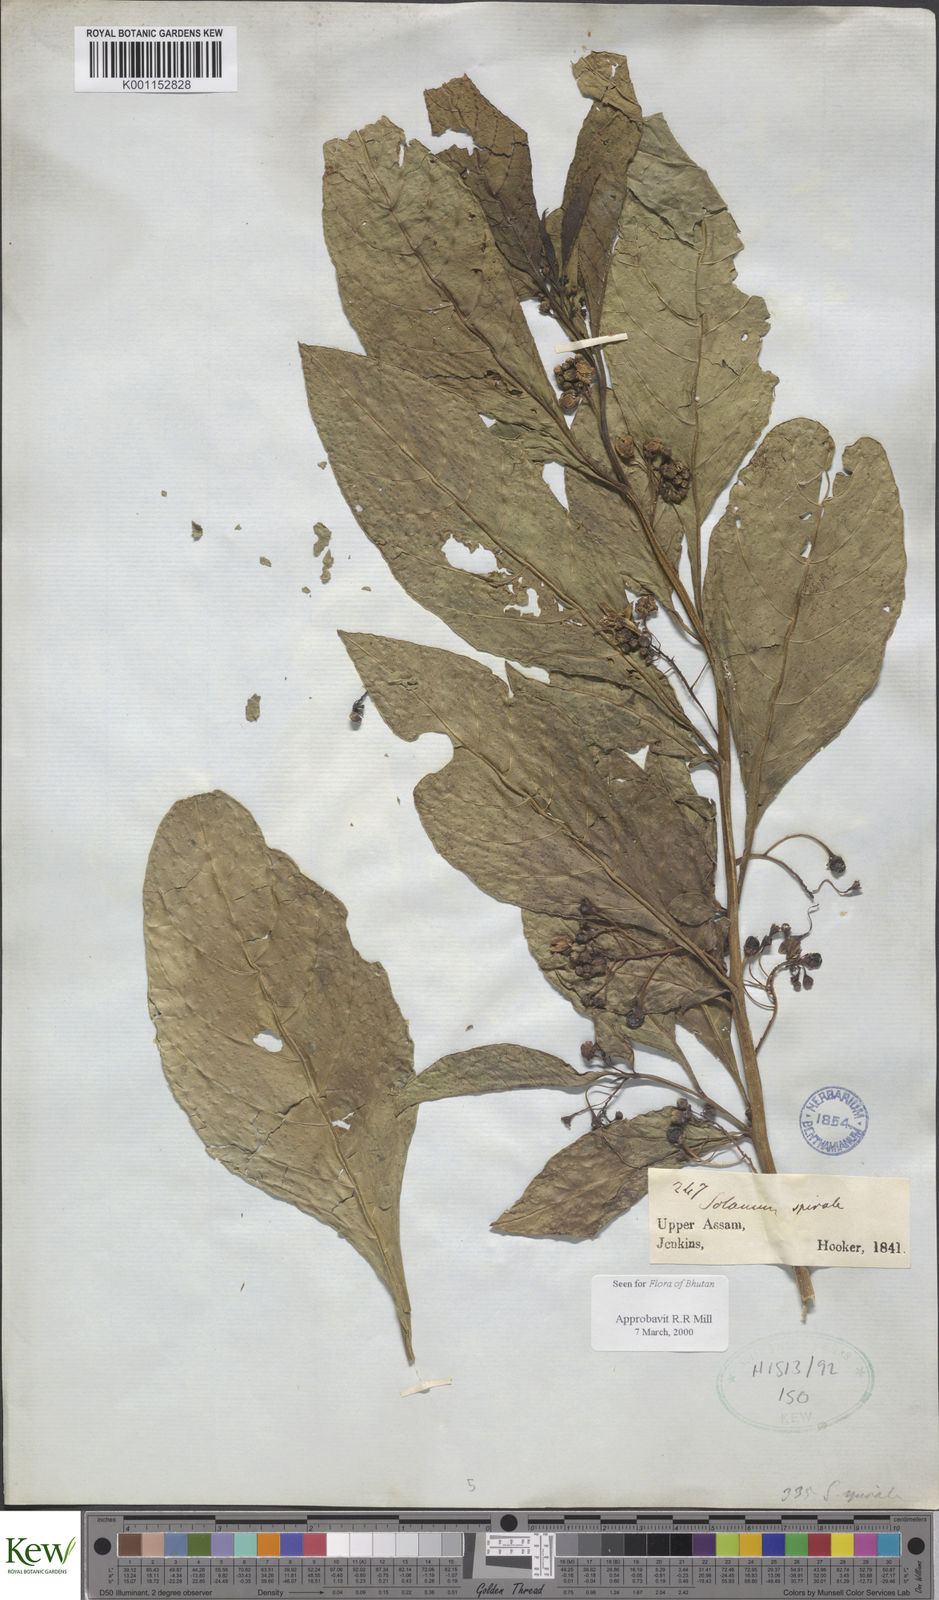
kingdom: Plantae
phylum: Tracheophyta
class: Magnoliopsida
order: Solanales
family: Solanaceae
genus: Solanum
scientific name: Solanum spirale
